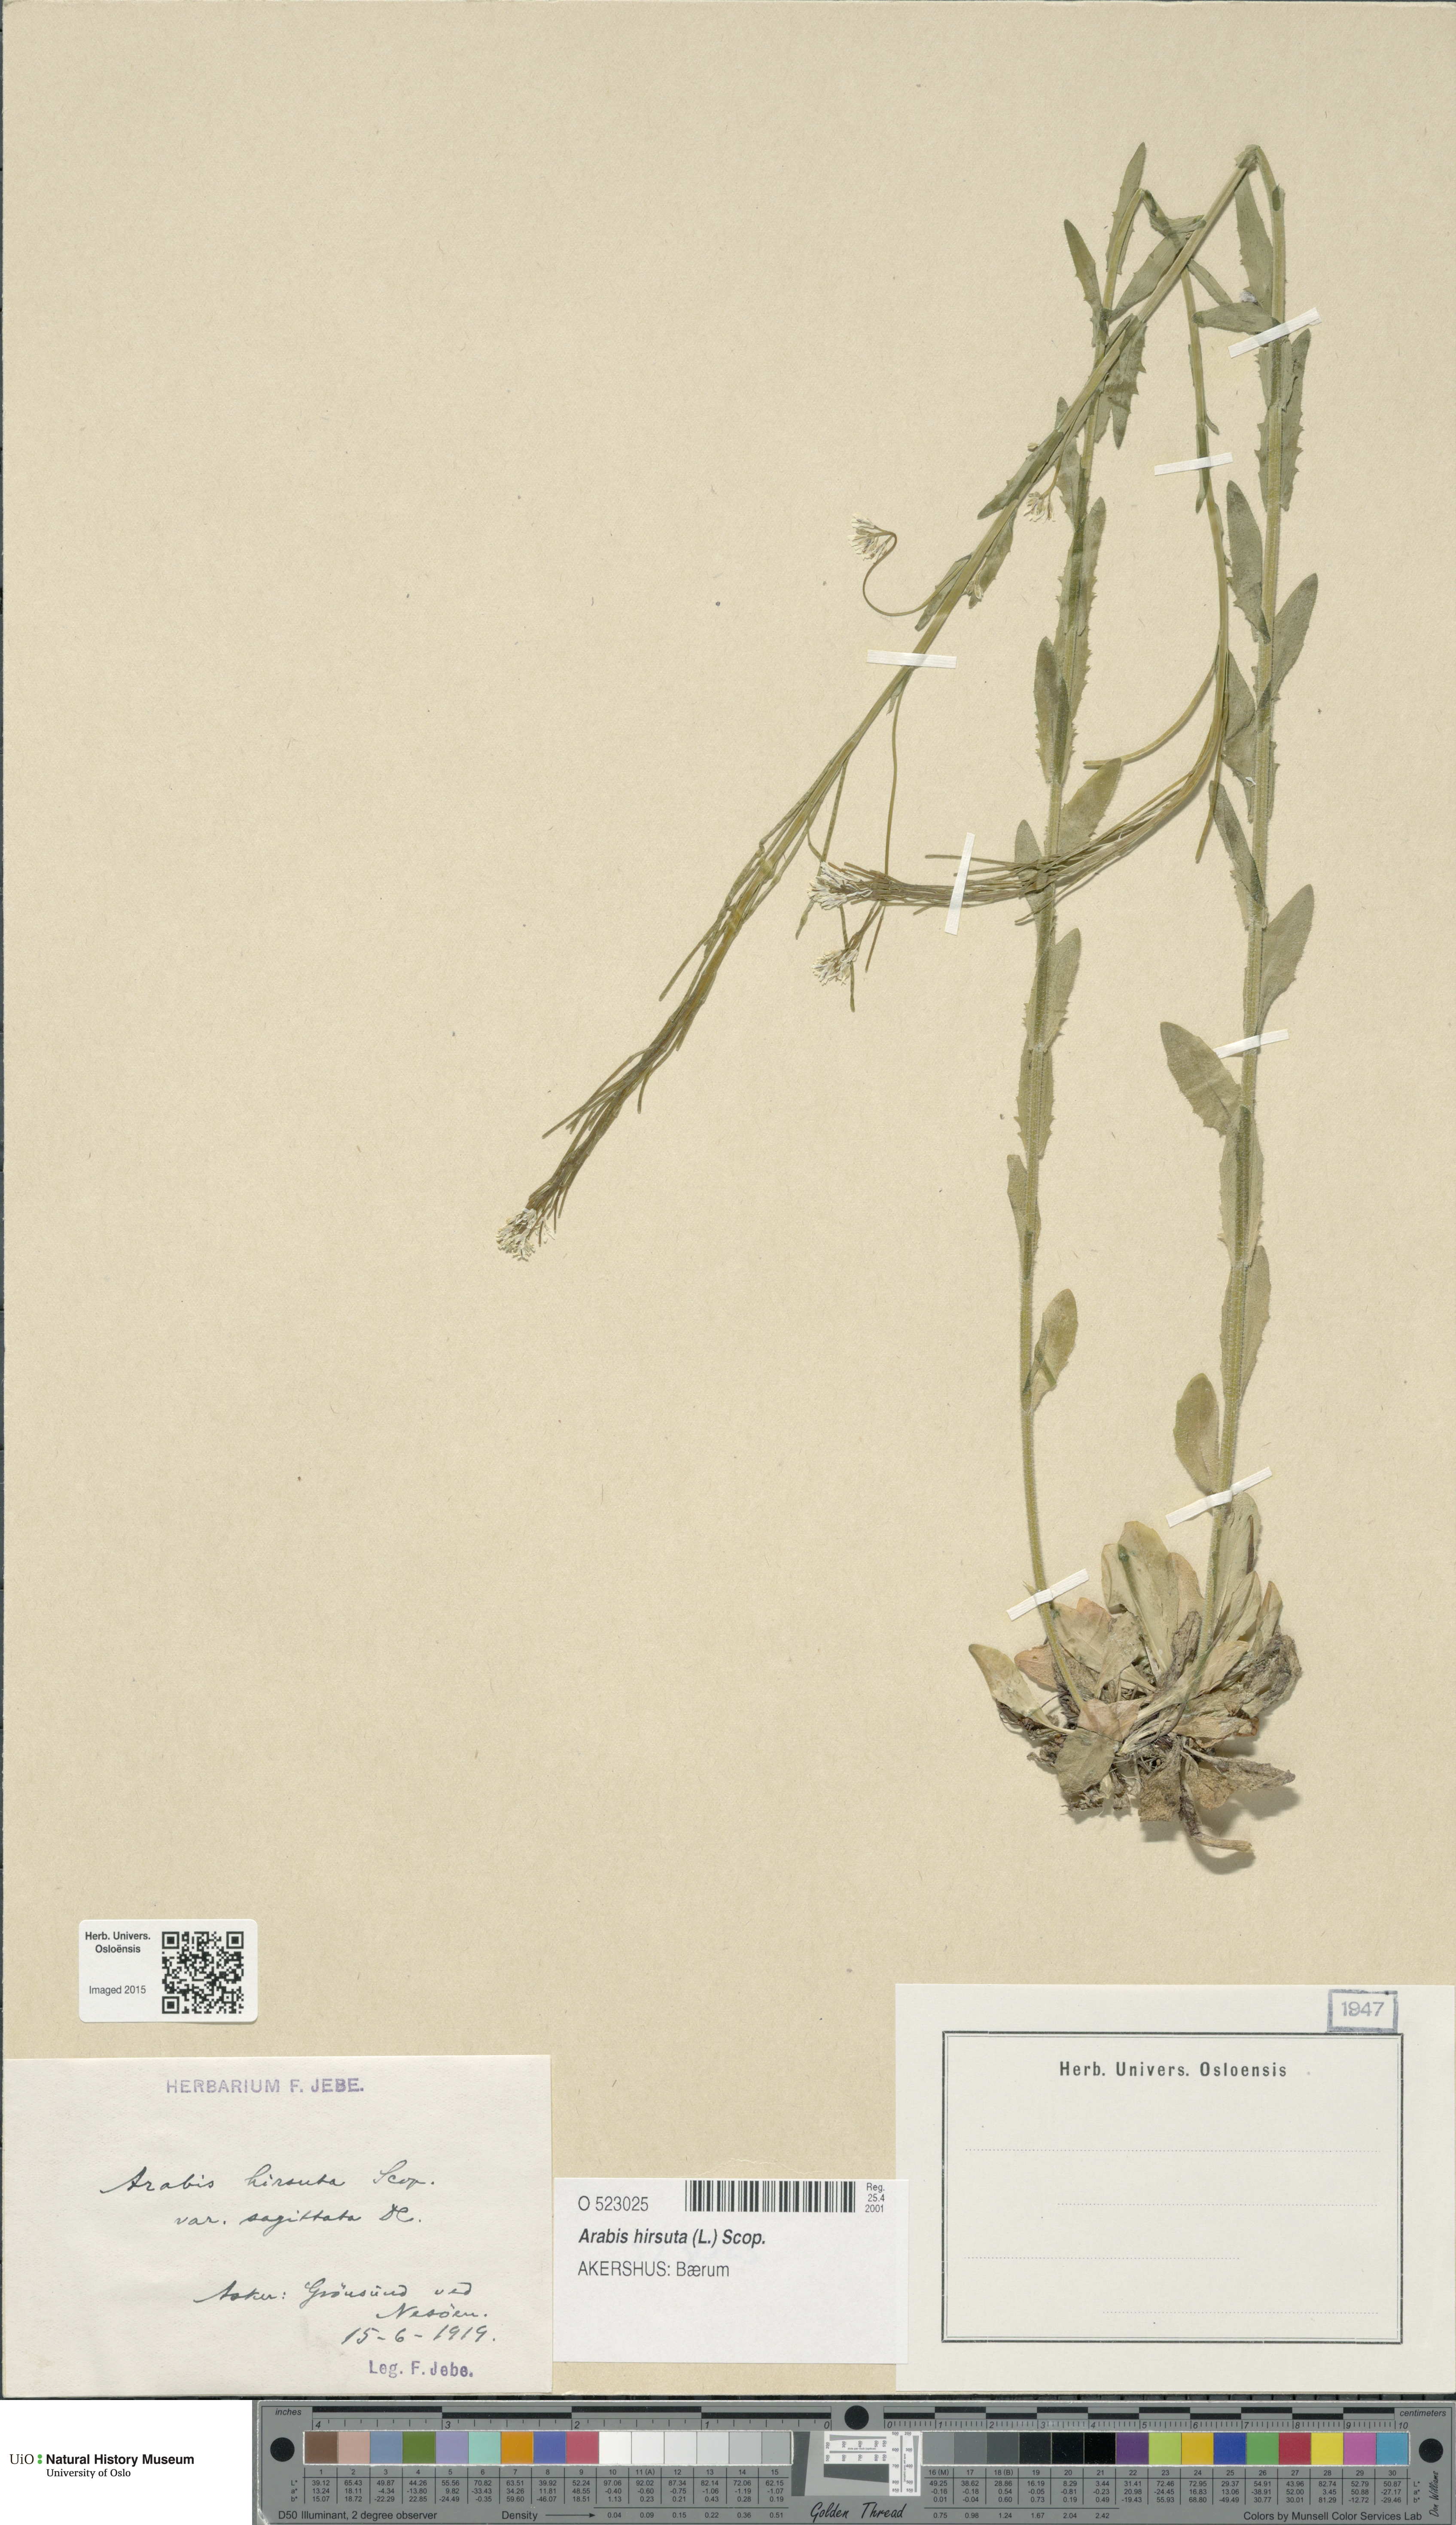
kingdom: Plantae
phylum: Tracheophyta
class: Magnoliopsida
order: Brassicales
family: Brassicaceae
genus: Arabis
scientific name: Arabis hirsuta
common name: Hairy rock-cress
